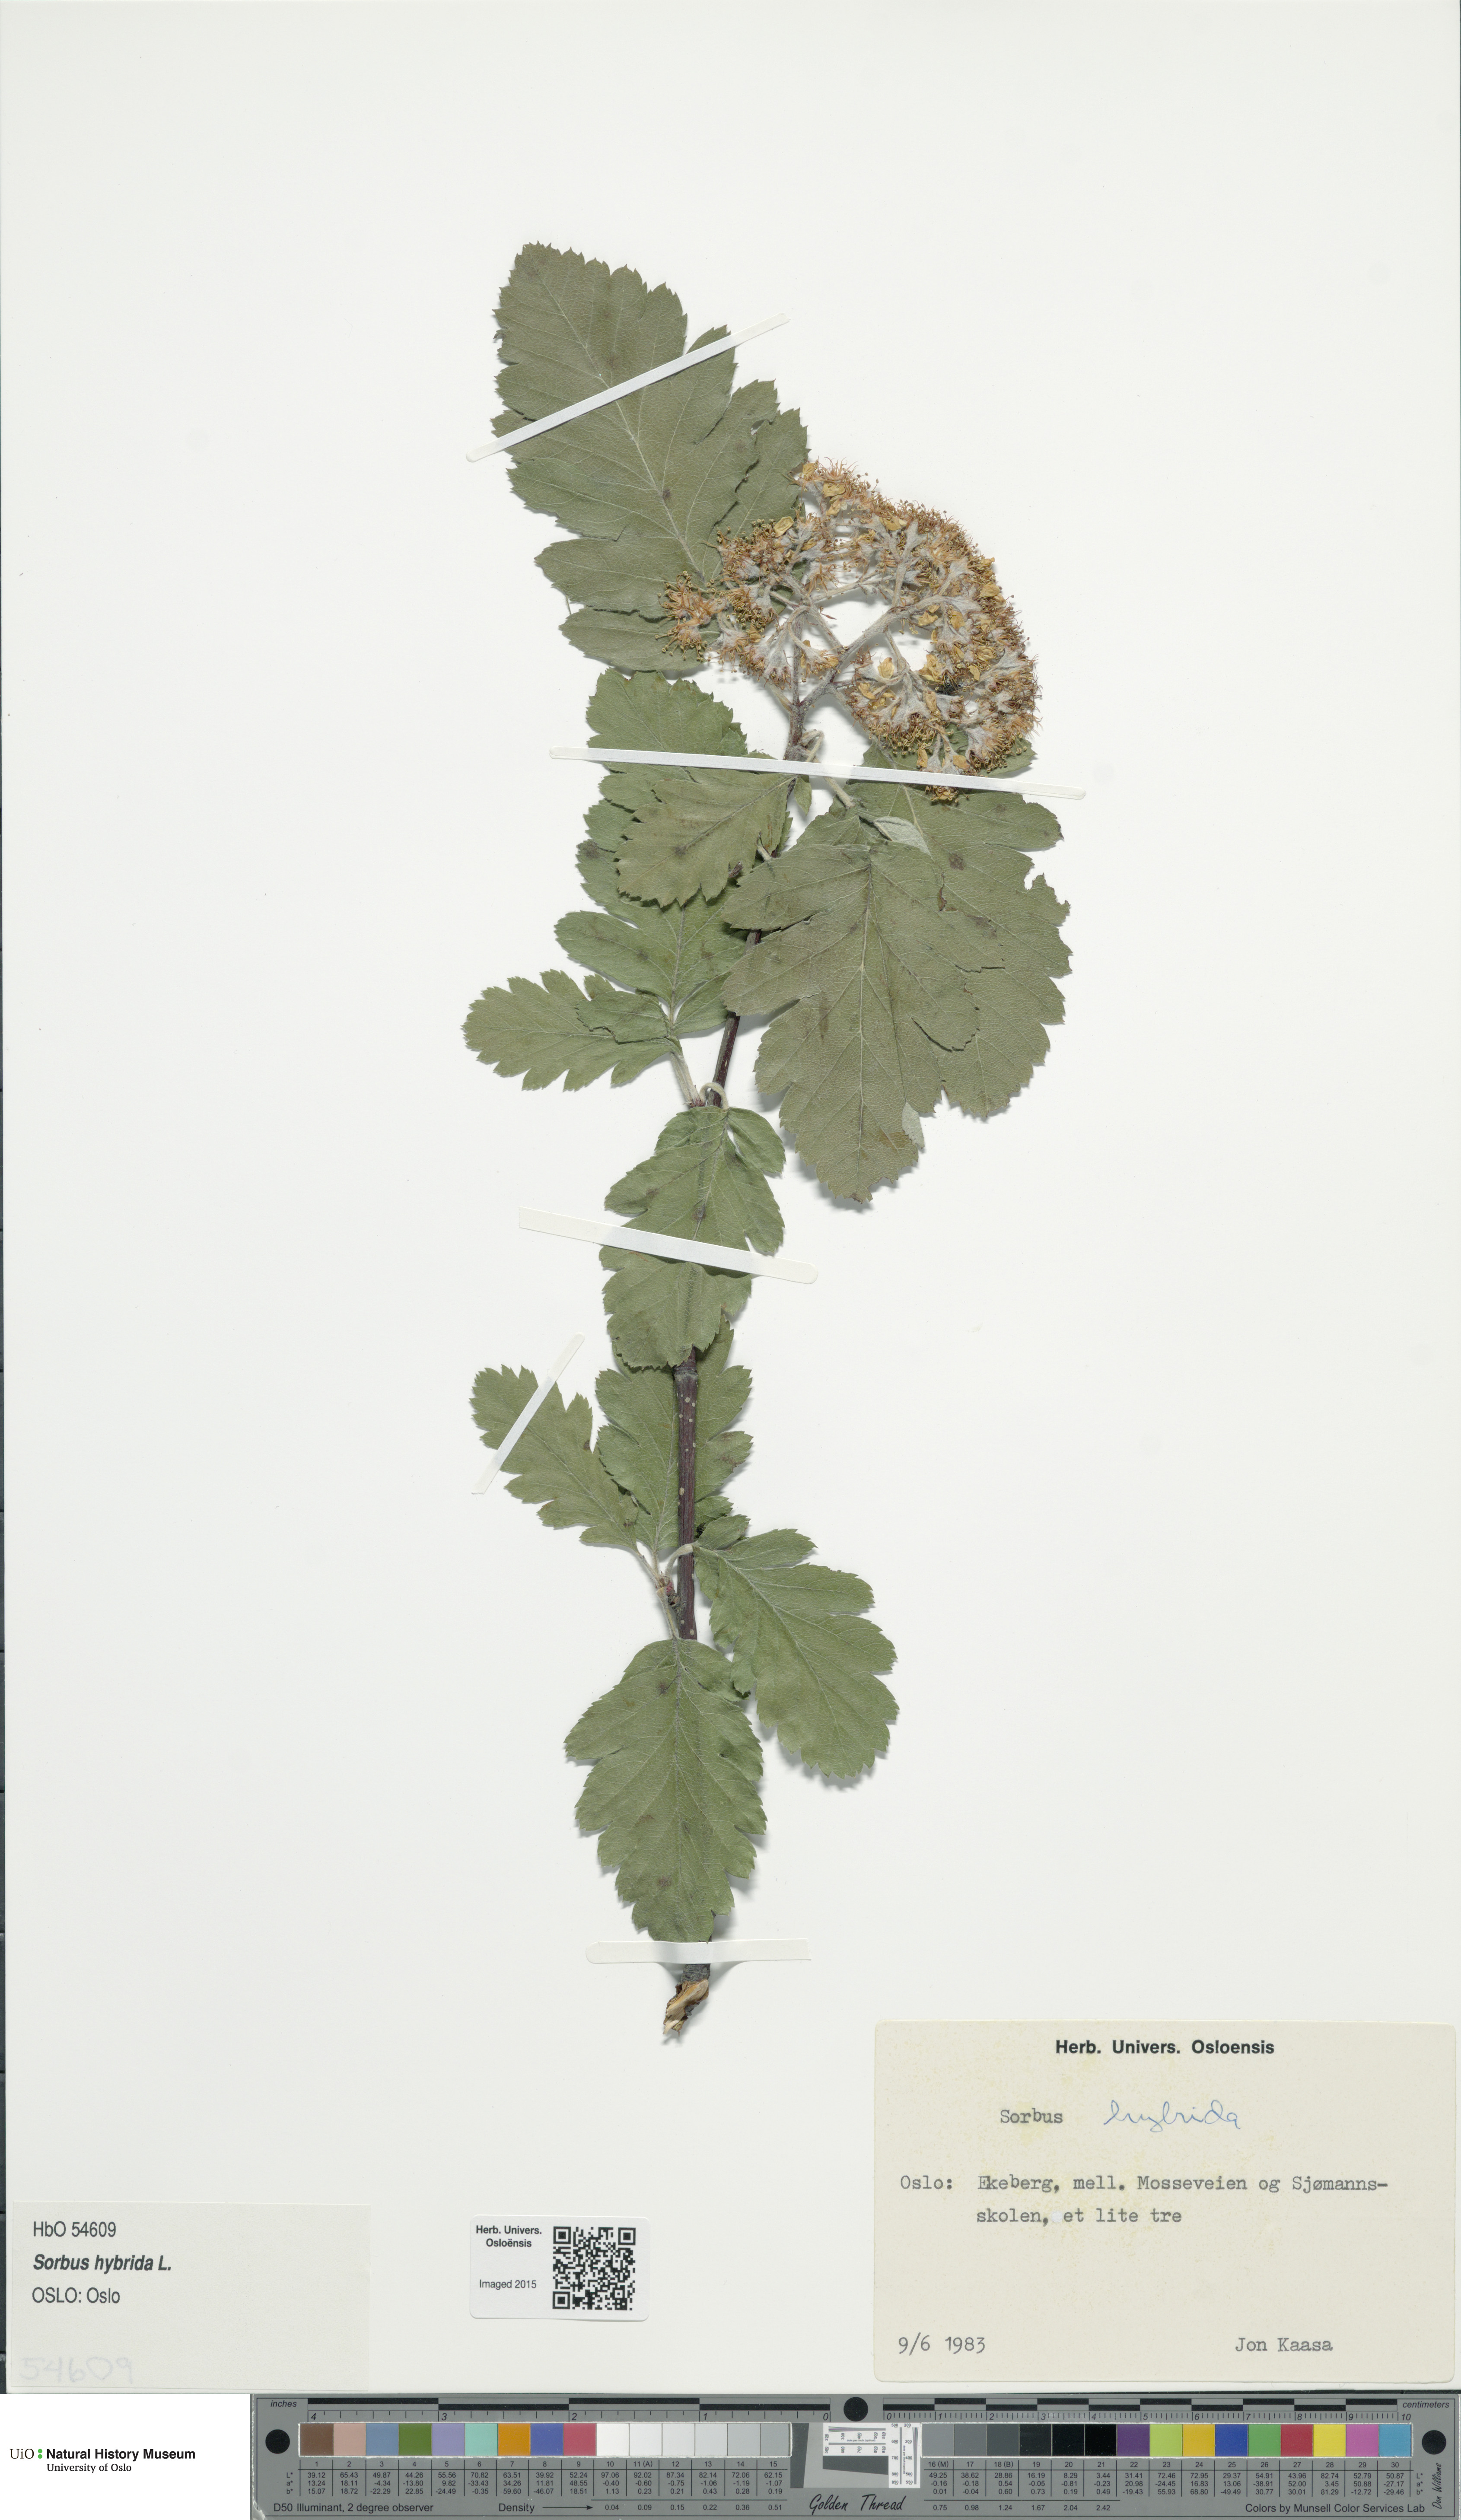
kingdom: Plantae
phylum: Tracheophyta
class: Magnoliopsida
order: Rosales
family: Rosaceae
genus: Hedlundia
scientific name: Hedlundia hybrida
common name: Swedish service-tree
